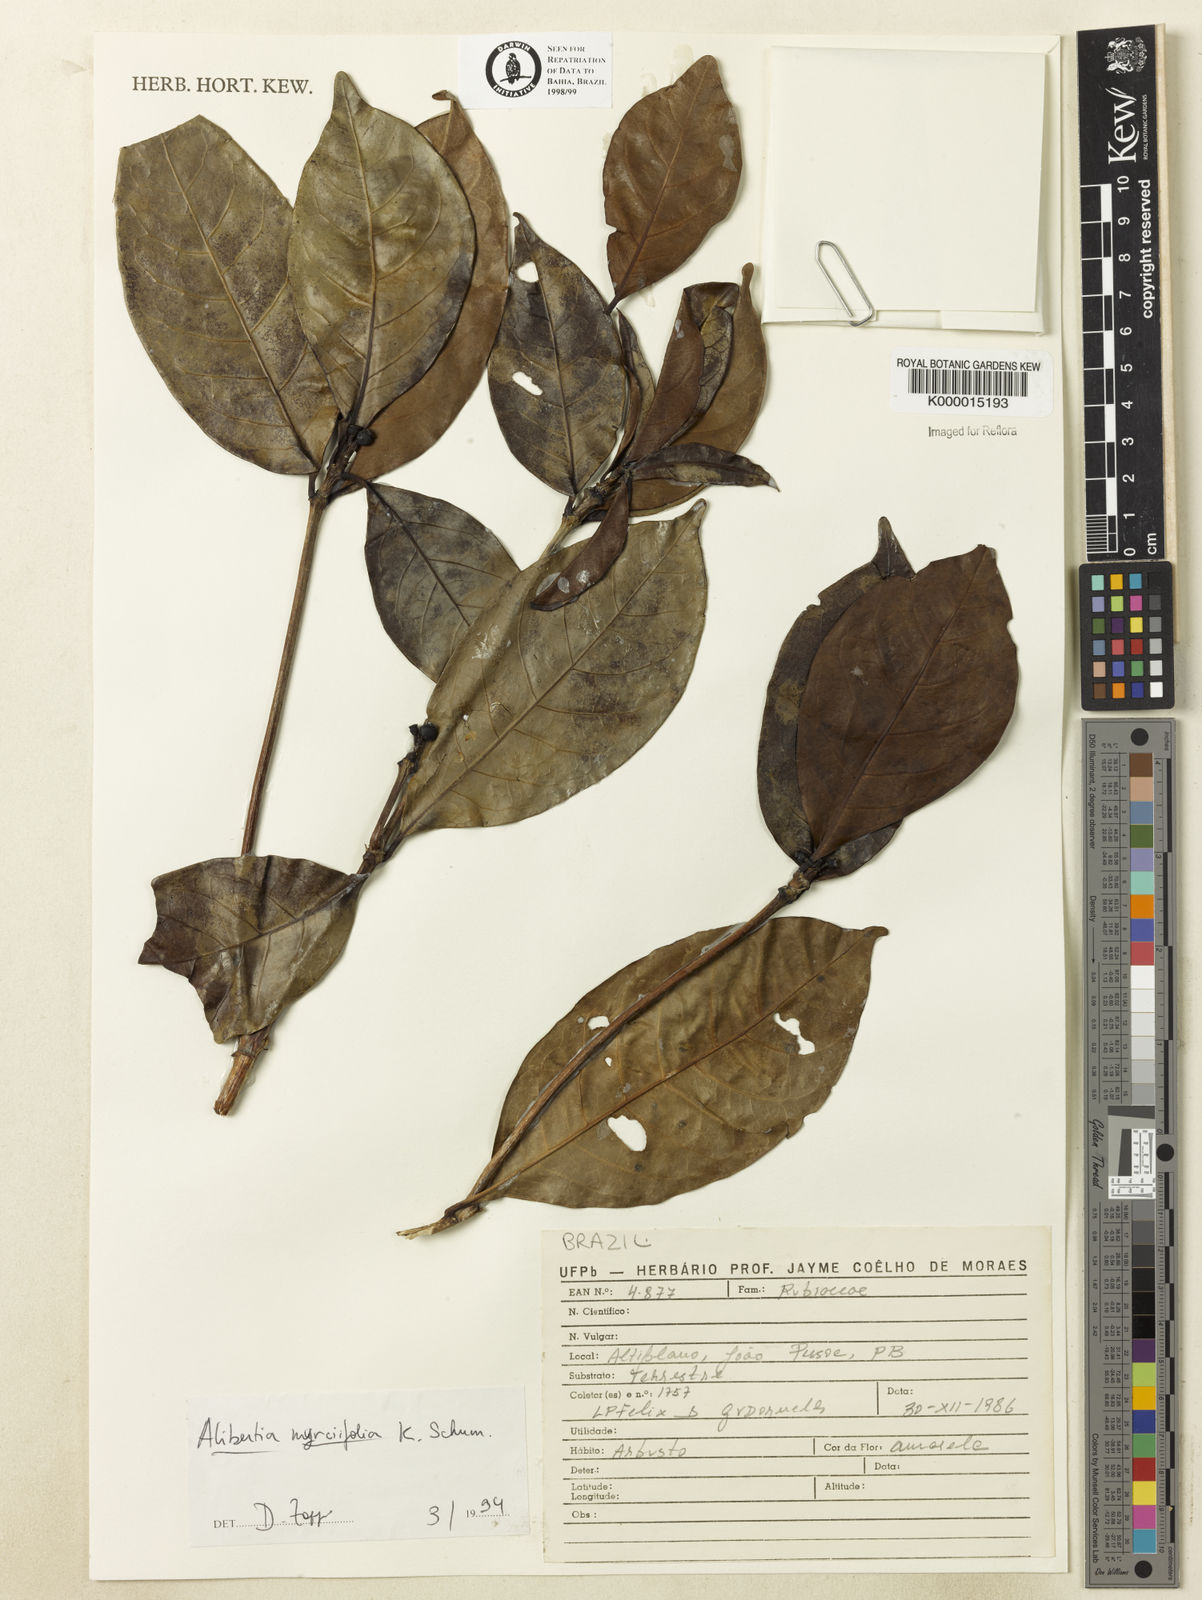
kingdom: Plantae
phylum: Tracheophyta
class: Magnoliopsida
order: Gentianales
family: Rubiaceae
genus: Cordiera
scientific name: Cordiera myrciifolia
